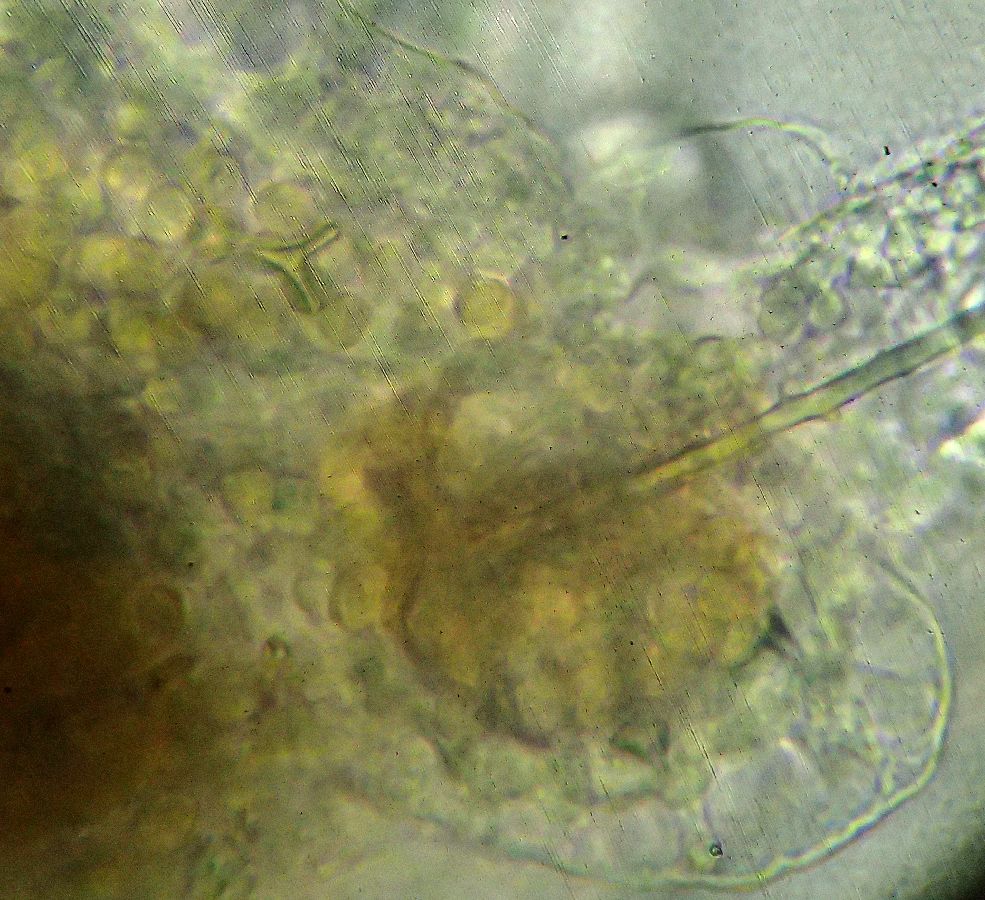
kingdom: Animalia
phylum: Echinodermata
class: Ophiuroidea
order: Amphilepidida
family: Ophiopholidae
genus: Ophiopholis
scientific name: Ophiopholis aculeata
